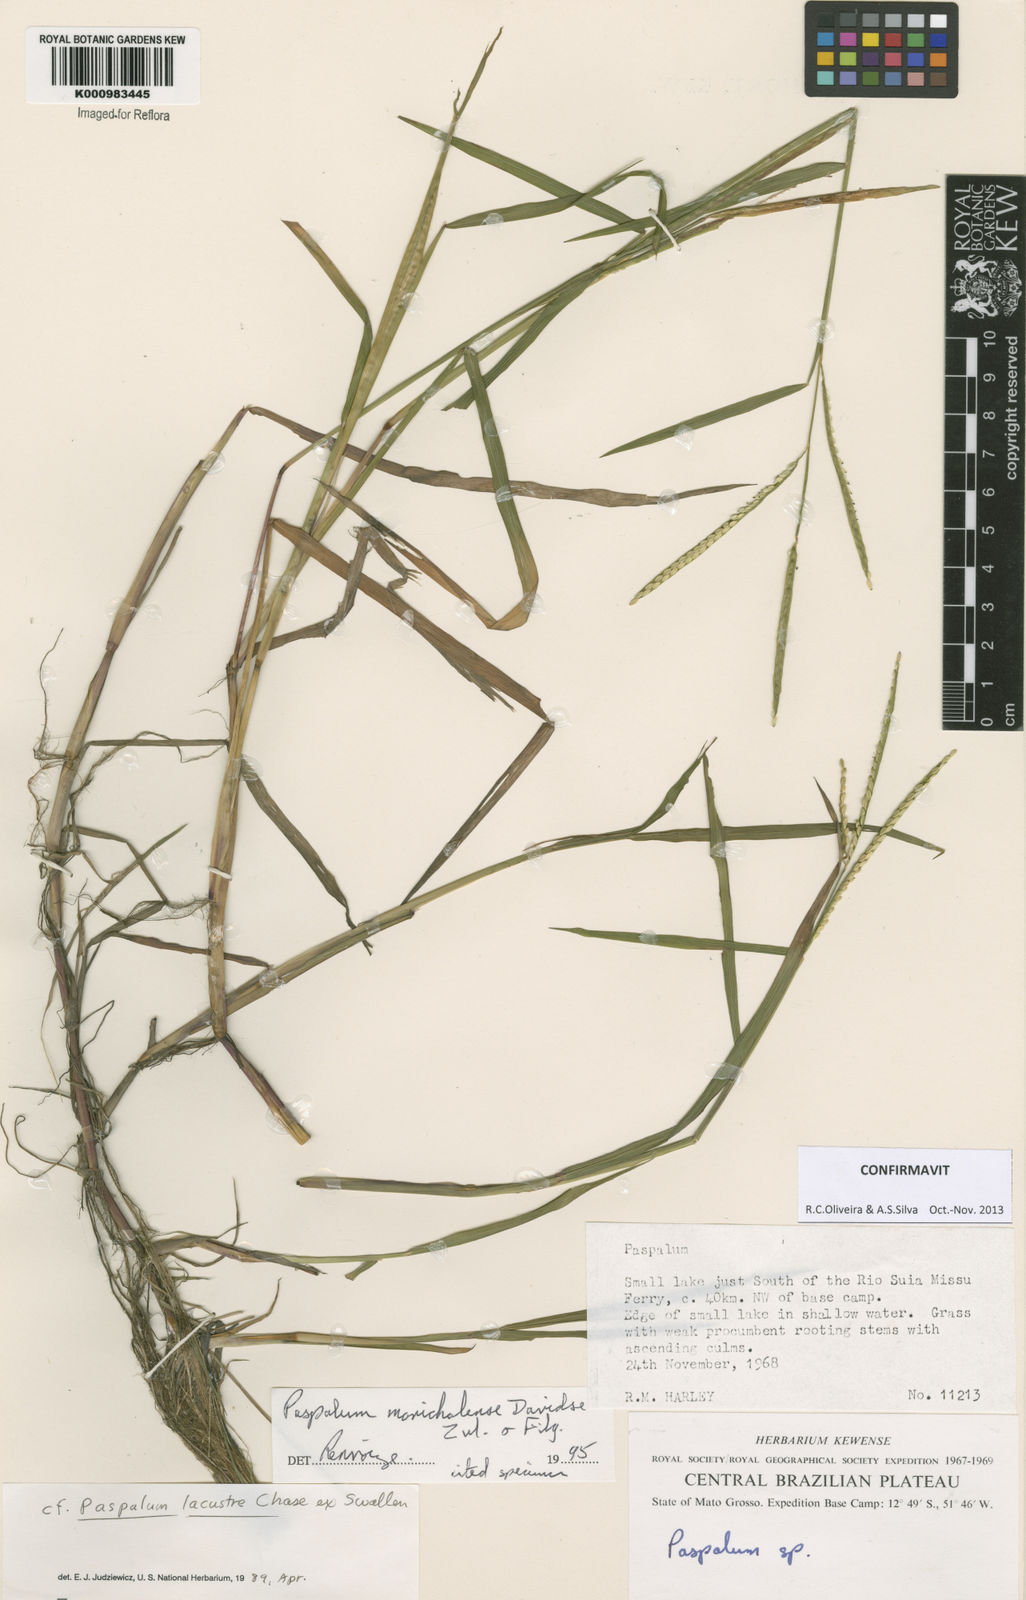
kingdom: Plantae
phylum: Tracheophyta
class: Liliopsida
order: Poales
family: Poaceae
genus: Paspalum
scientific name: Paspalum morichalense
